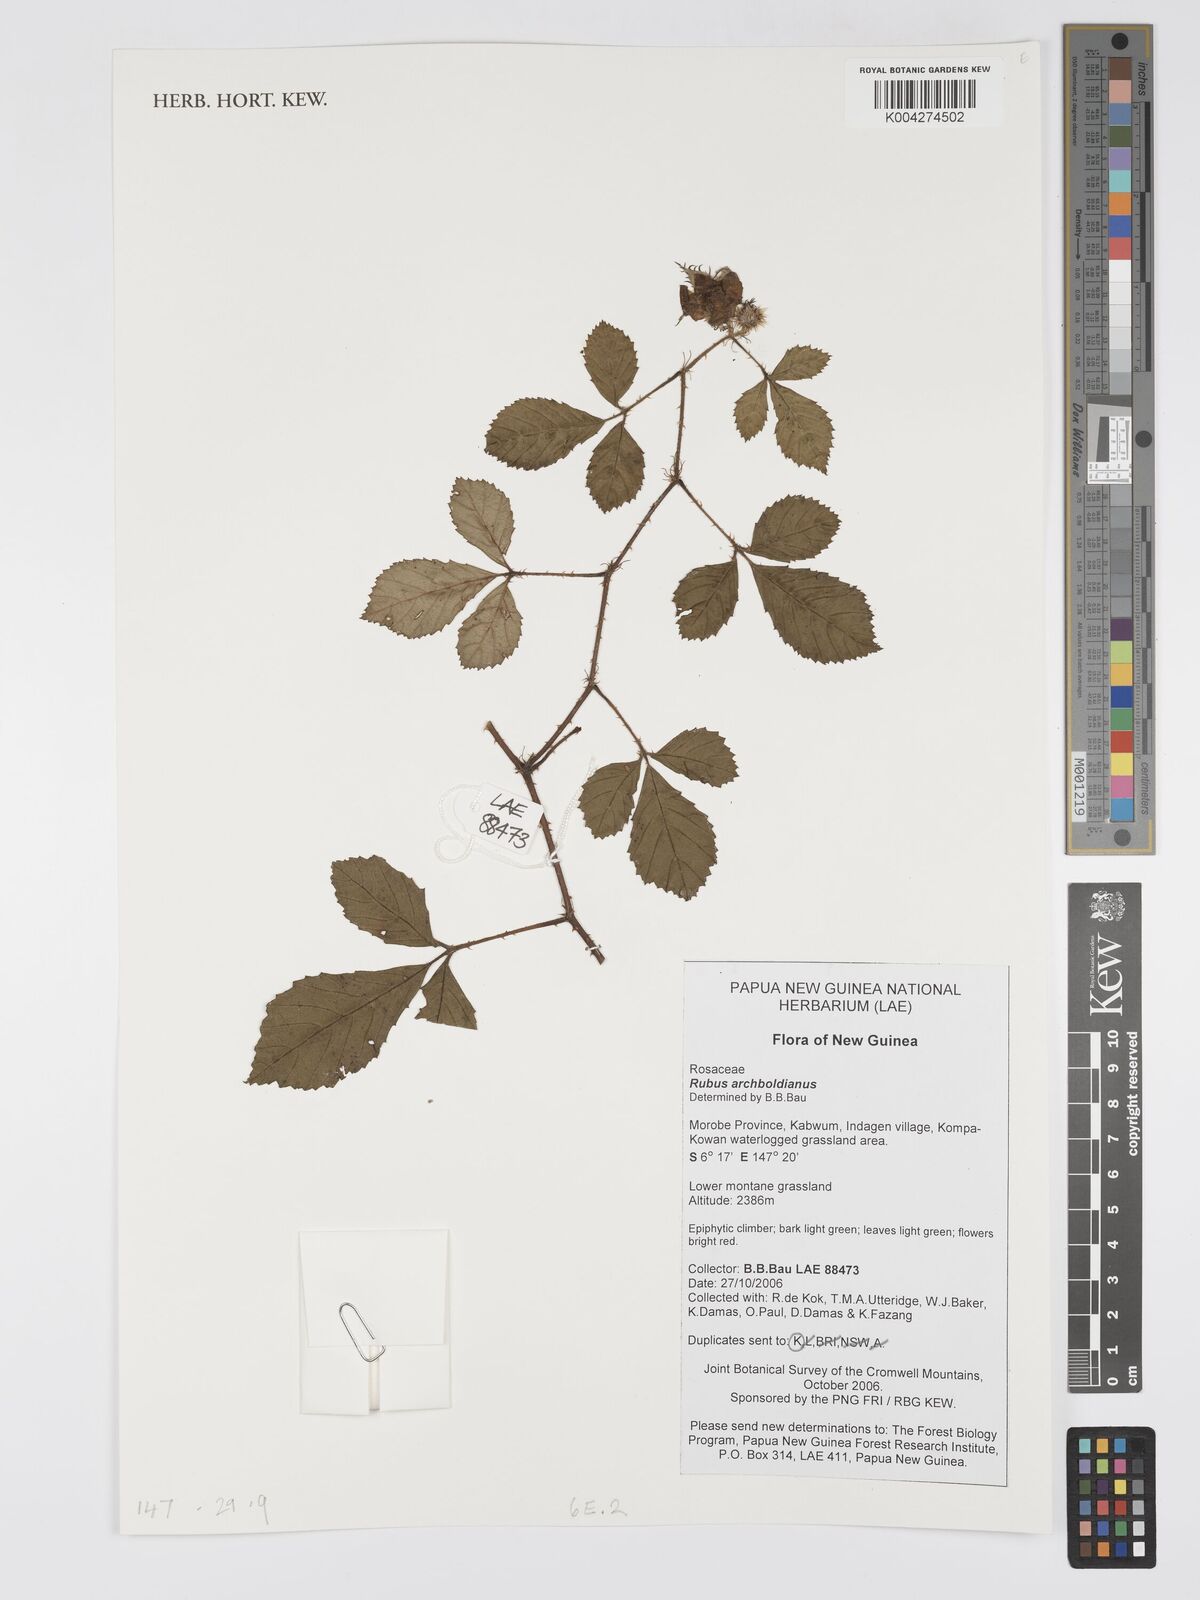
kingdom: Plantae
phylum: Tracheophyta
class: Magnoliopsida
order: Rosales
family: Rosaceae
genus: Rubus
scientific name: Rubus archboldianus
